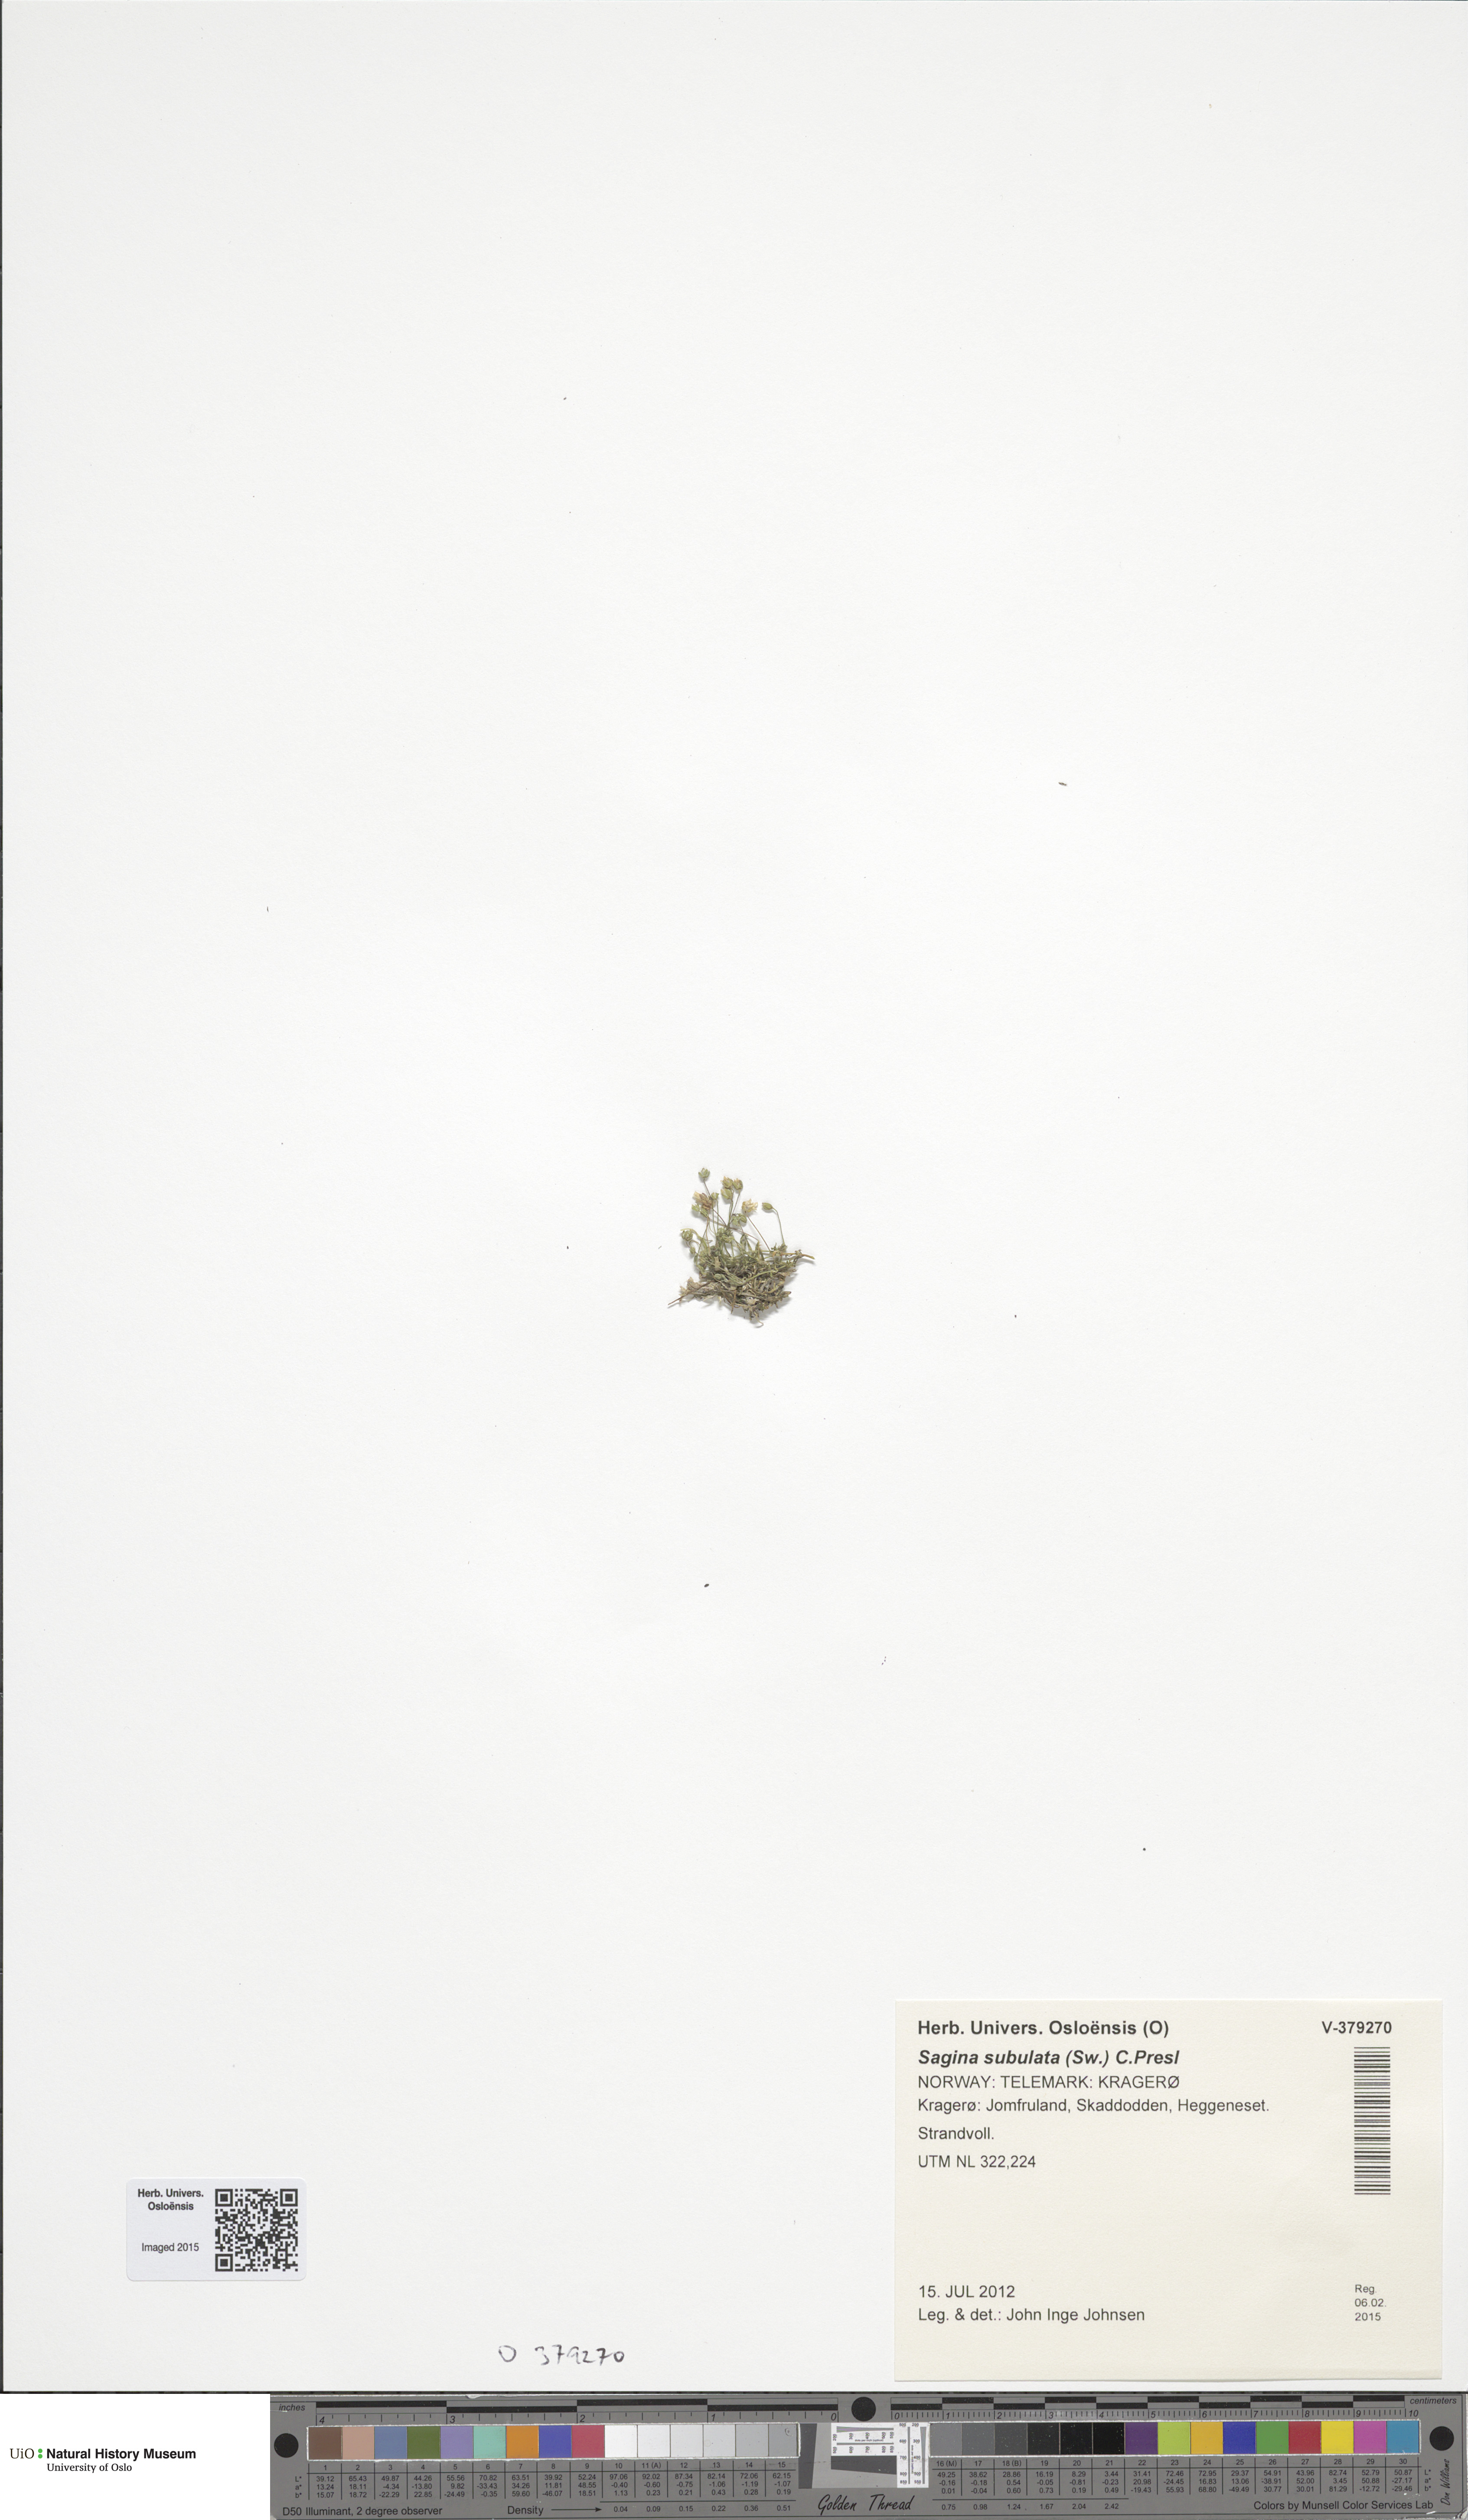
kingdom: Plantae
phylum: Tracheophyta
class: Magnoliopsida
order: Caryophyllales
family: Caryophyllaceae
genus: Sagina
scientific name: Sagina alexandrae
